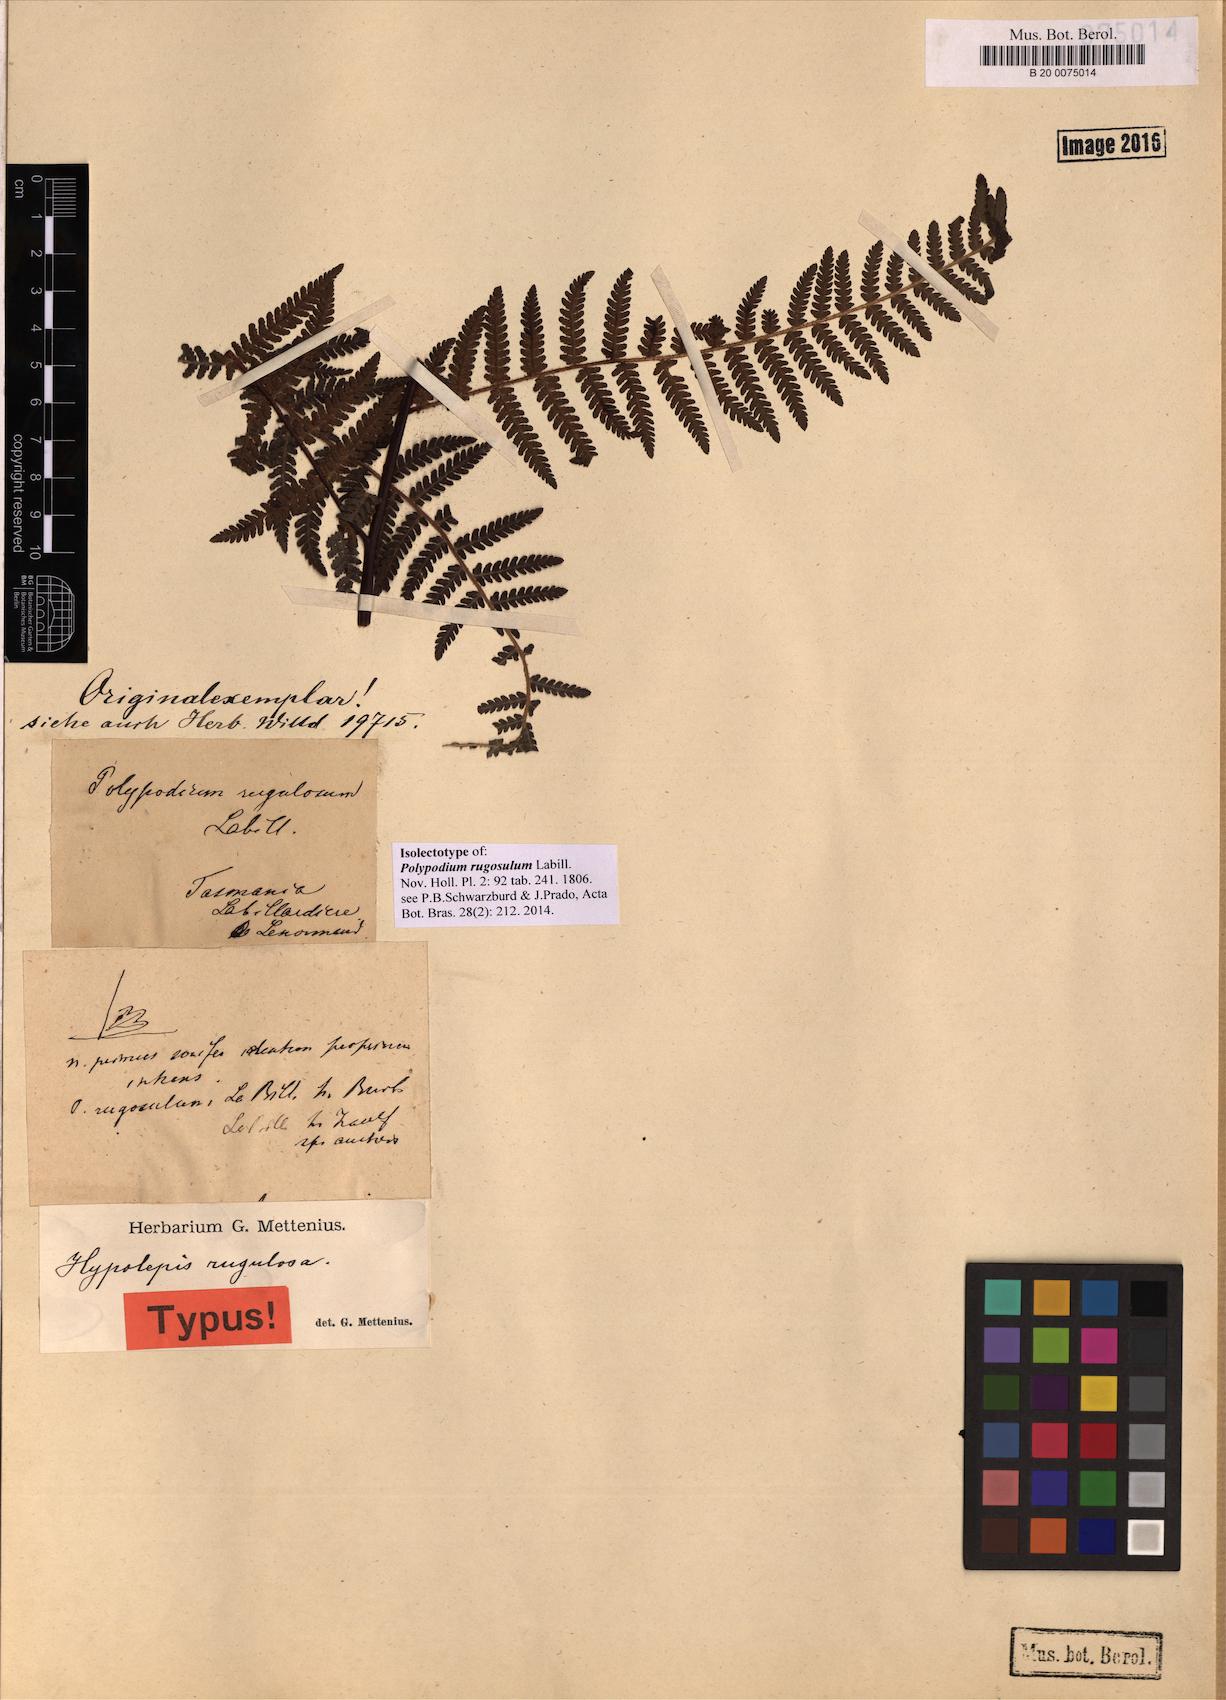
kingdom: Plantae
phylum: Tracheophyta
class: Polypodiopsida
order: Polypodiales
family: Dennstaedtiaceae
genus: Hypolepis
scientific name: Hypolepis rugosula
